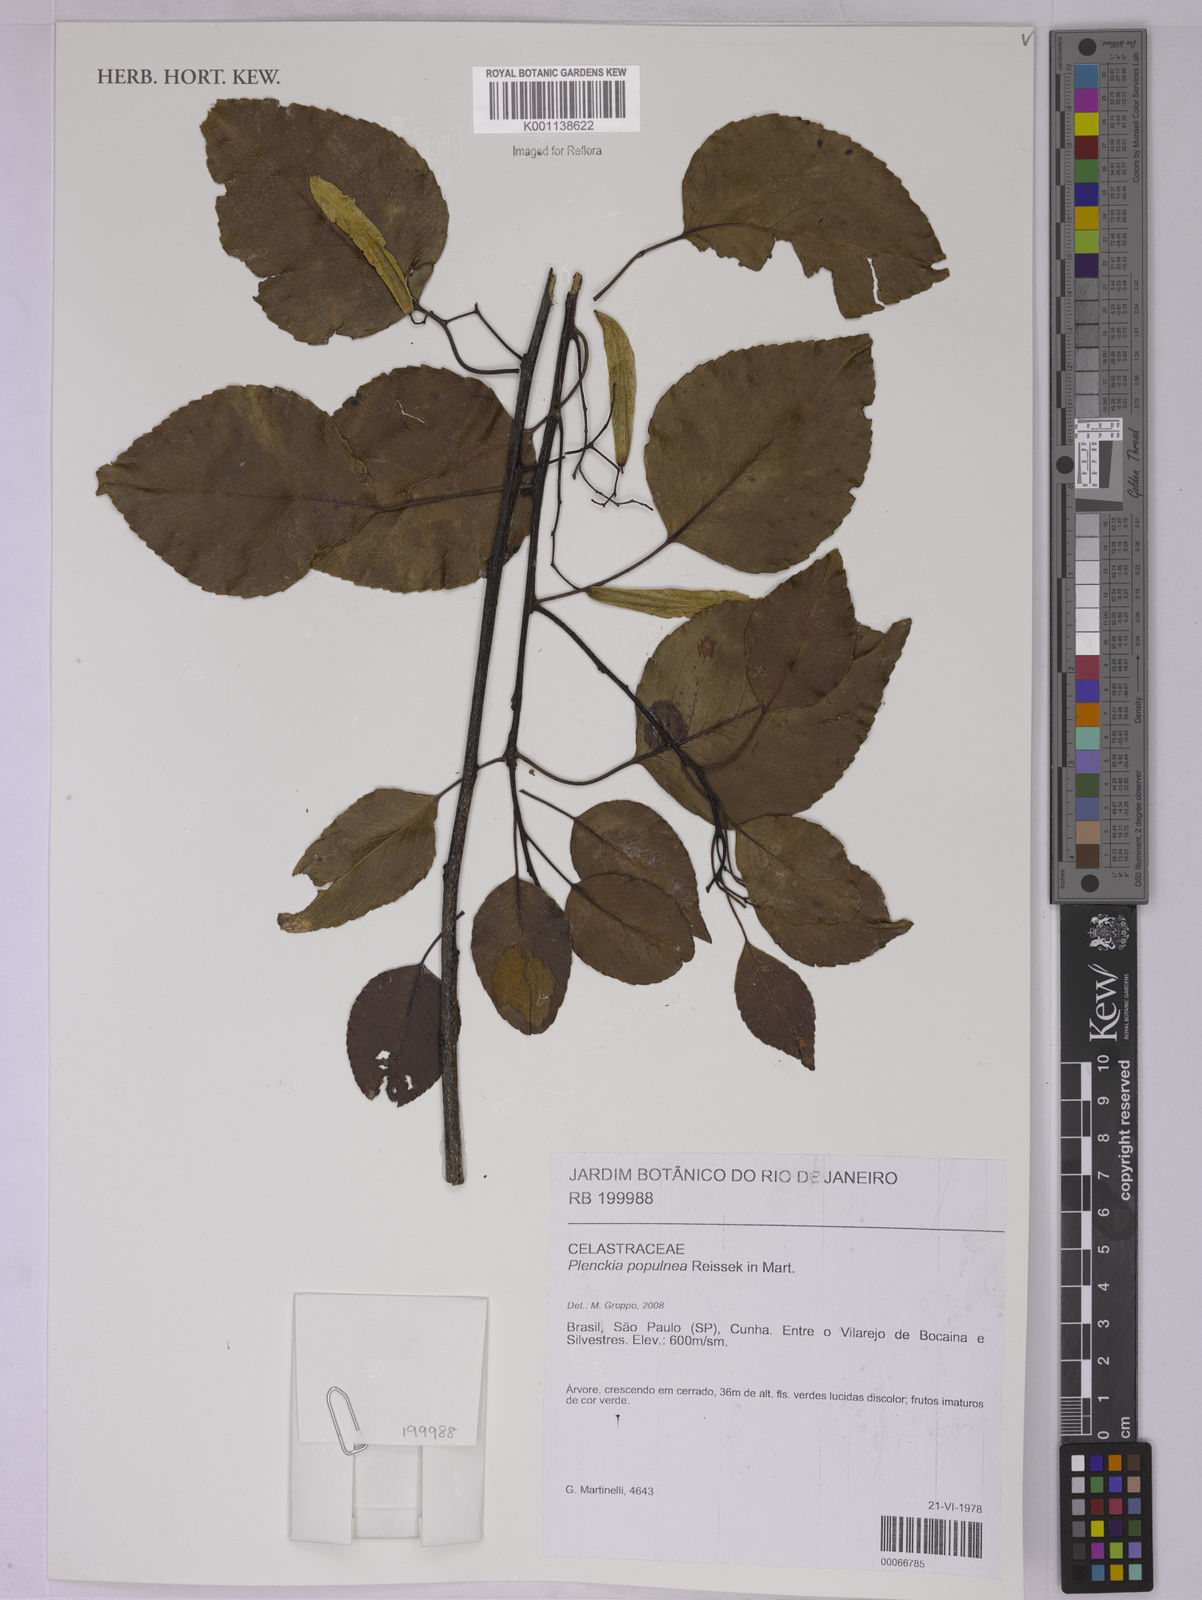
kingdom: Plantae
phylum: Tracheophyta
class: Magnoliopsida
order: Celastrales
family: Celastraceae
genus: Plenckia
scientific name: Plenckia populnea
